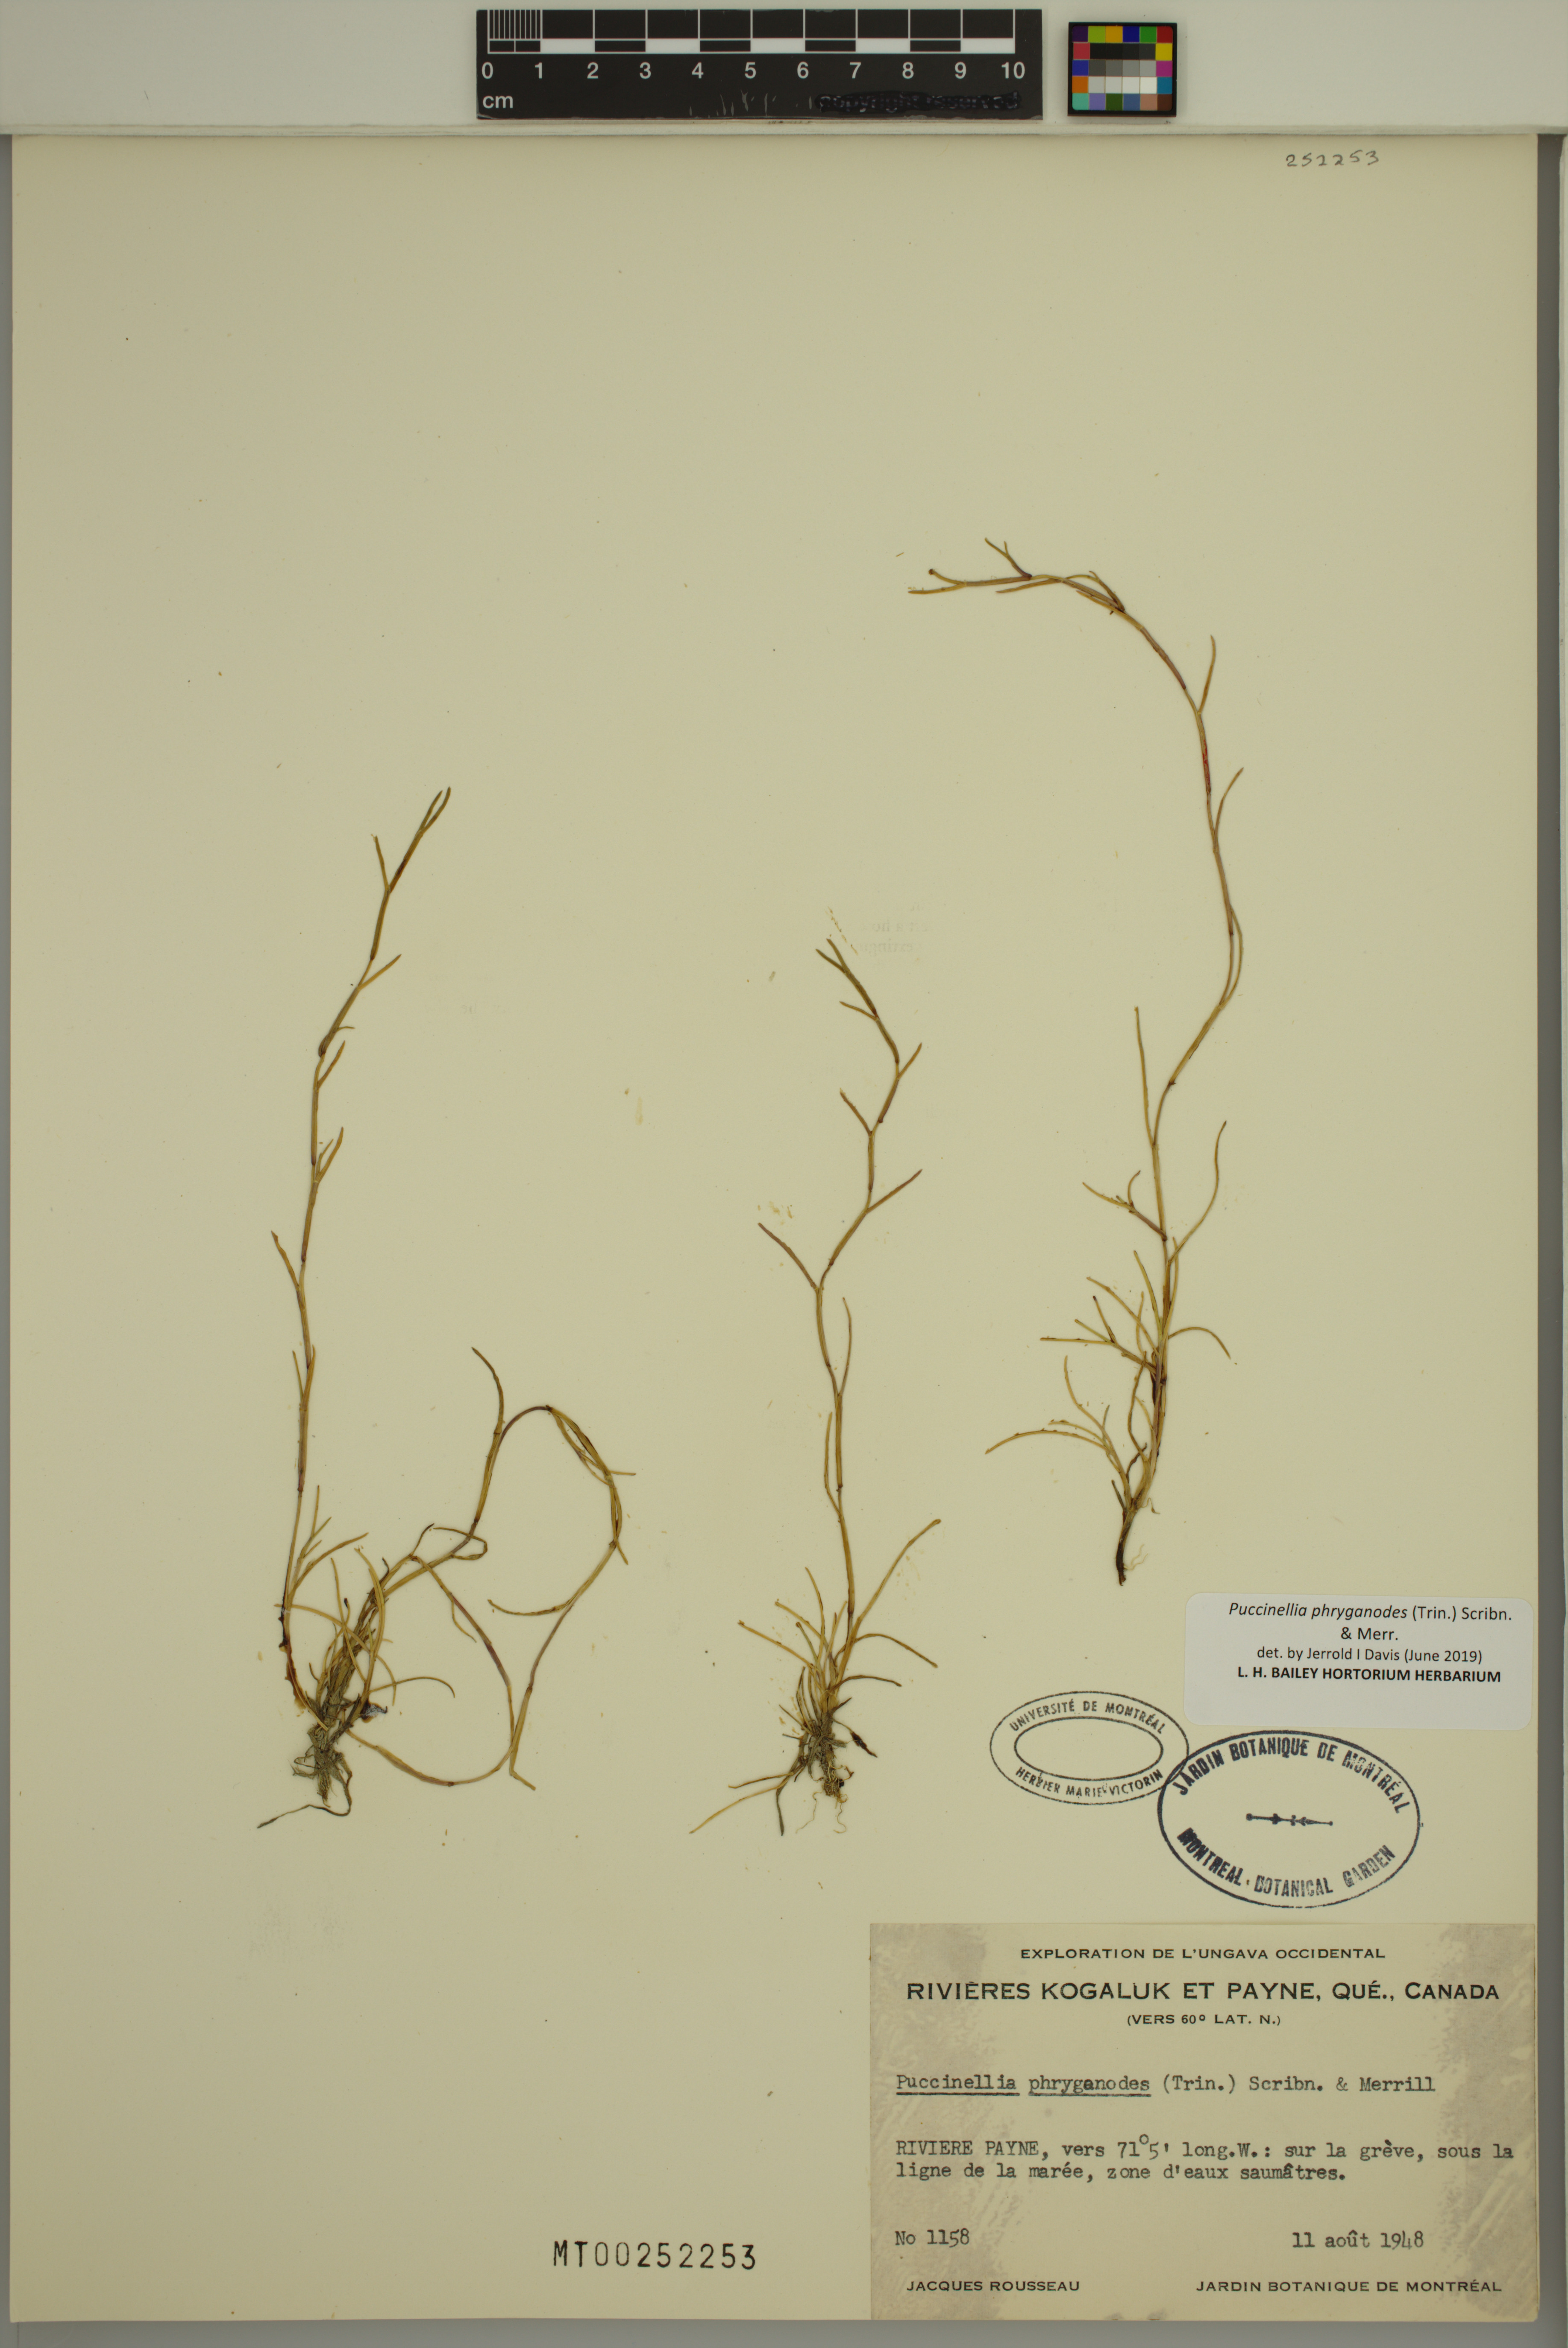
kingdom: Plantae
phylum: Tracheophyta
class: Liliopsida
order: Poales
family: Poaceae
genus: Puccinellia
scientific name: Puccinellia phryganodes
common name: Creeping alkaligrass
